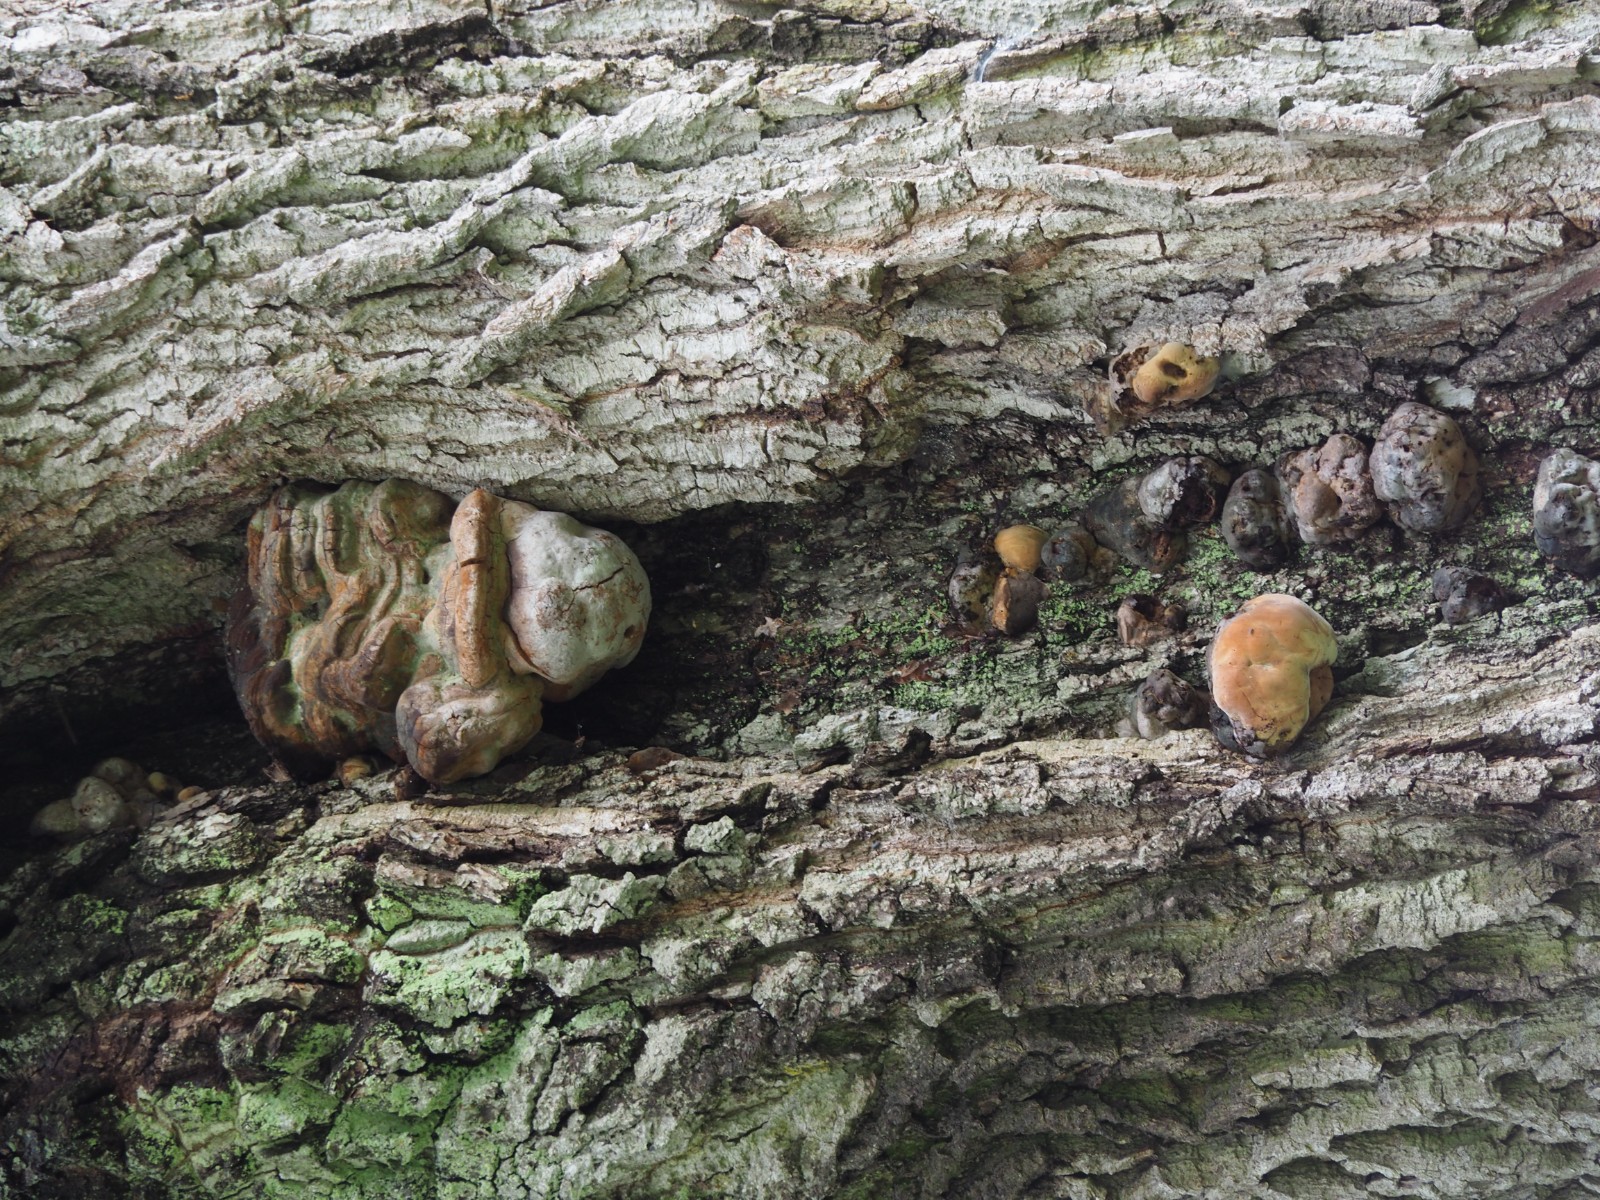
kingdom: Fungi
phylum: Basidiomycota
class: Agaricomycetes
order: Hymenochaetales
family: Hymenochaetaceae
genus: Fomitiporia
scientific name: Fomitiporia robusta
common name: ege-ildporesvamp
